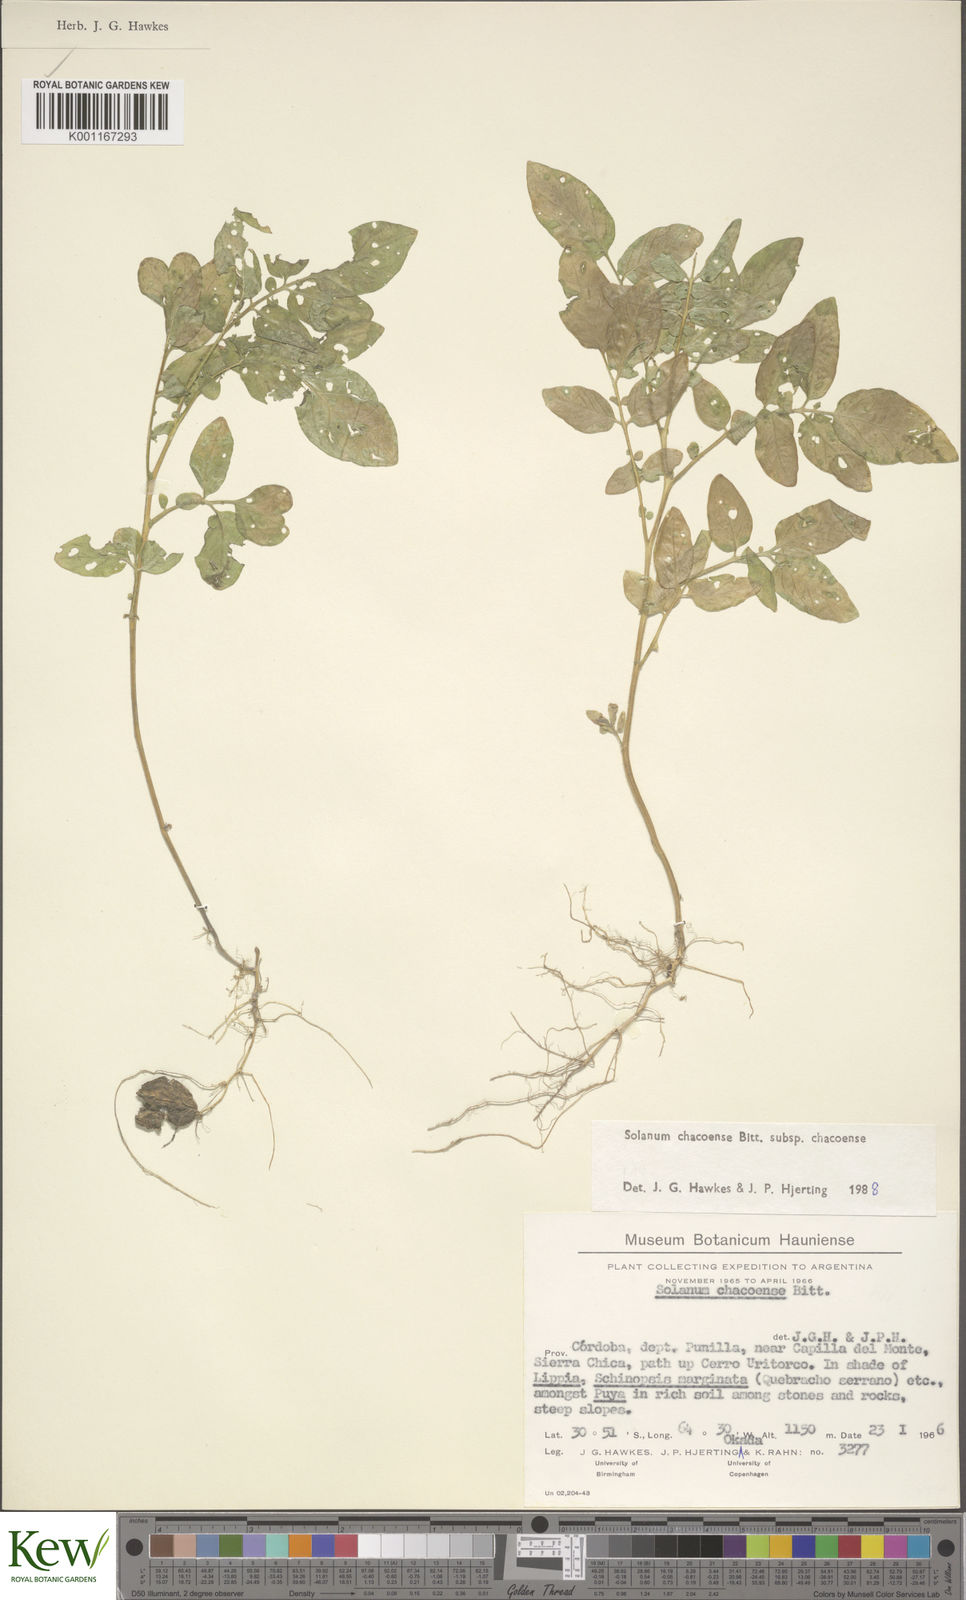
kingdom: Plantae
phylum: Tracheophyta
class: Magnoliopsida
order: Solanales
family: Solanaceae
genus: Solanum
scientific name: Solanum chacoense
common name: Chaco potato
